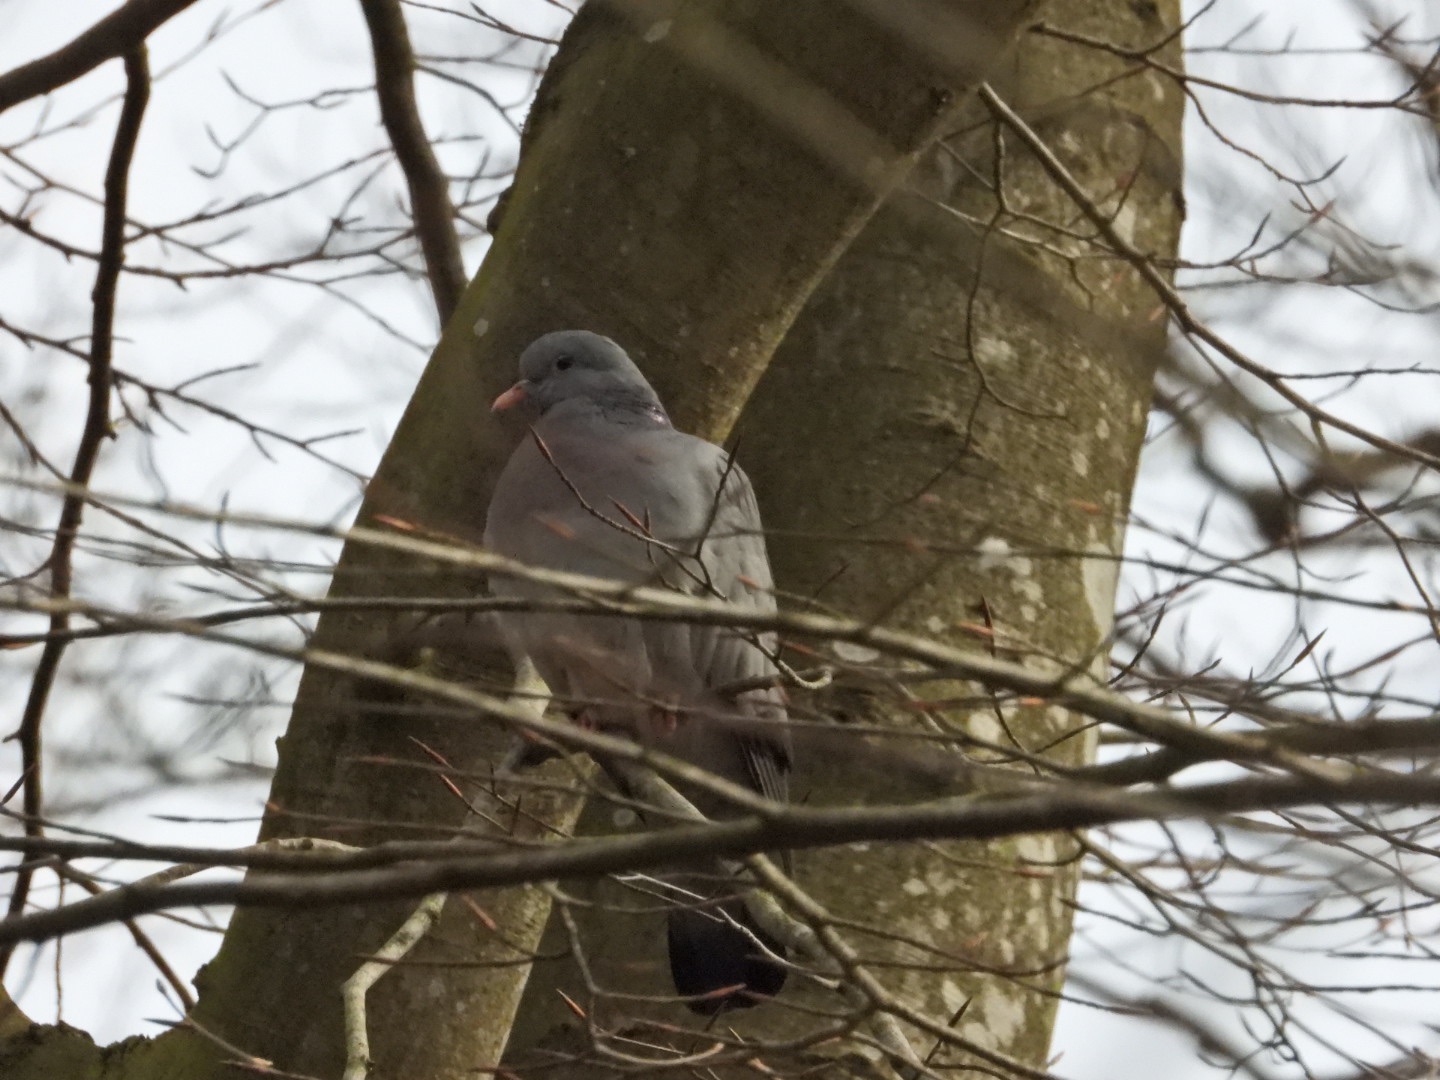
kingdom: Animalia
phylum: Chordata
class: Aves
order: Columbiformes
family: Columbidae
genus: Columba
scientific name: Columba oenas
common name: Huldue
